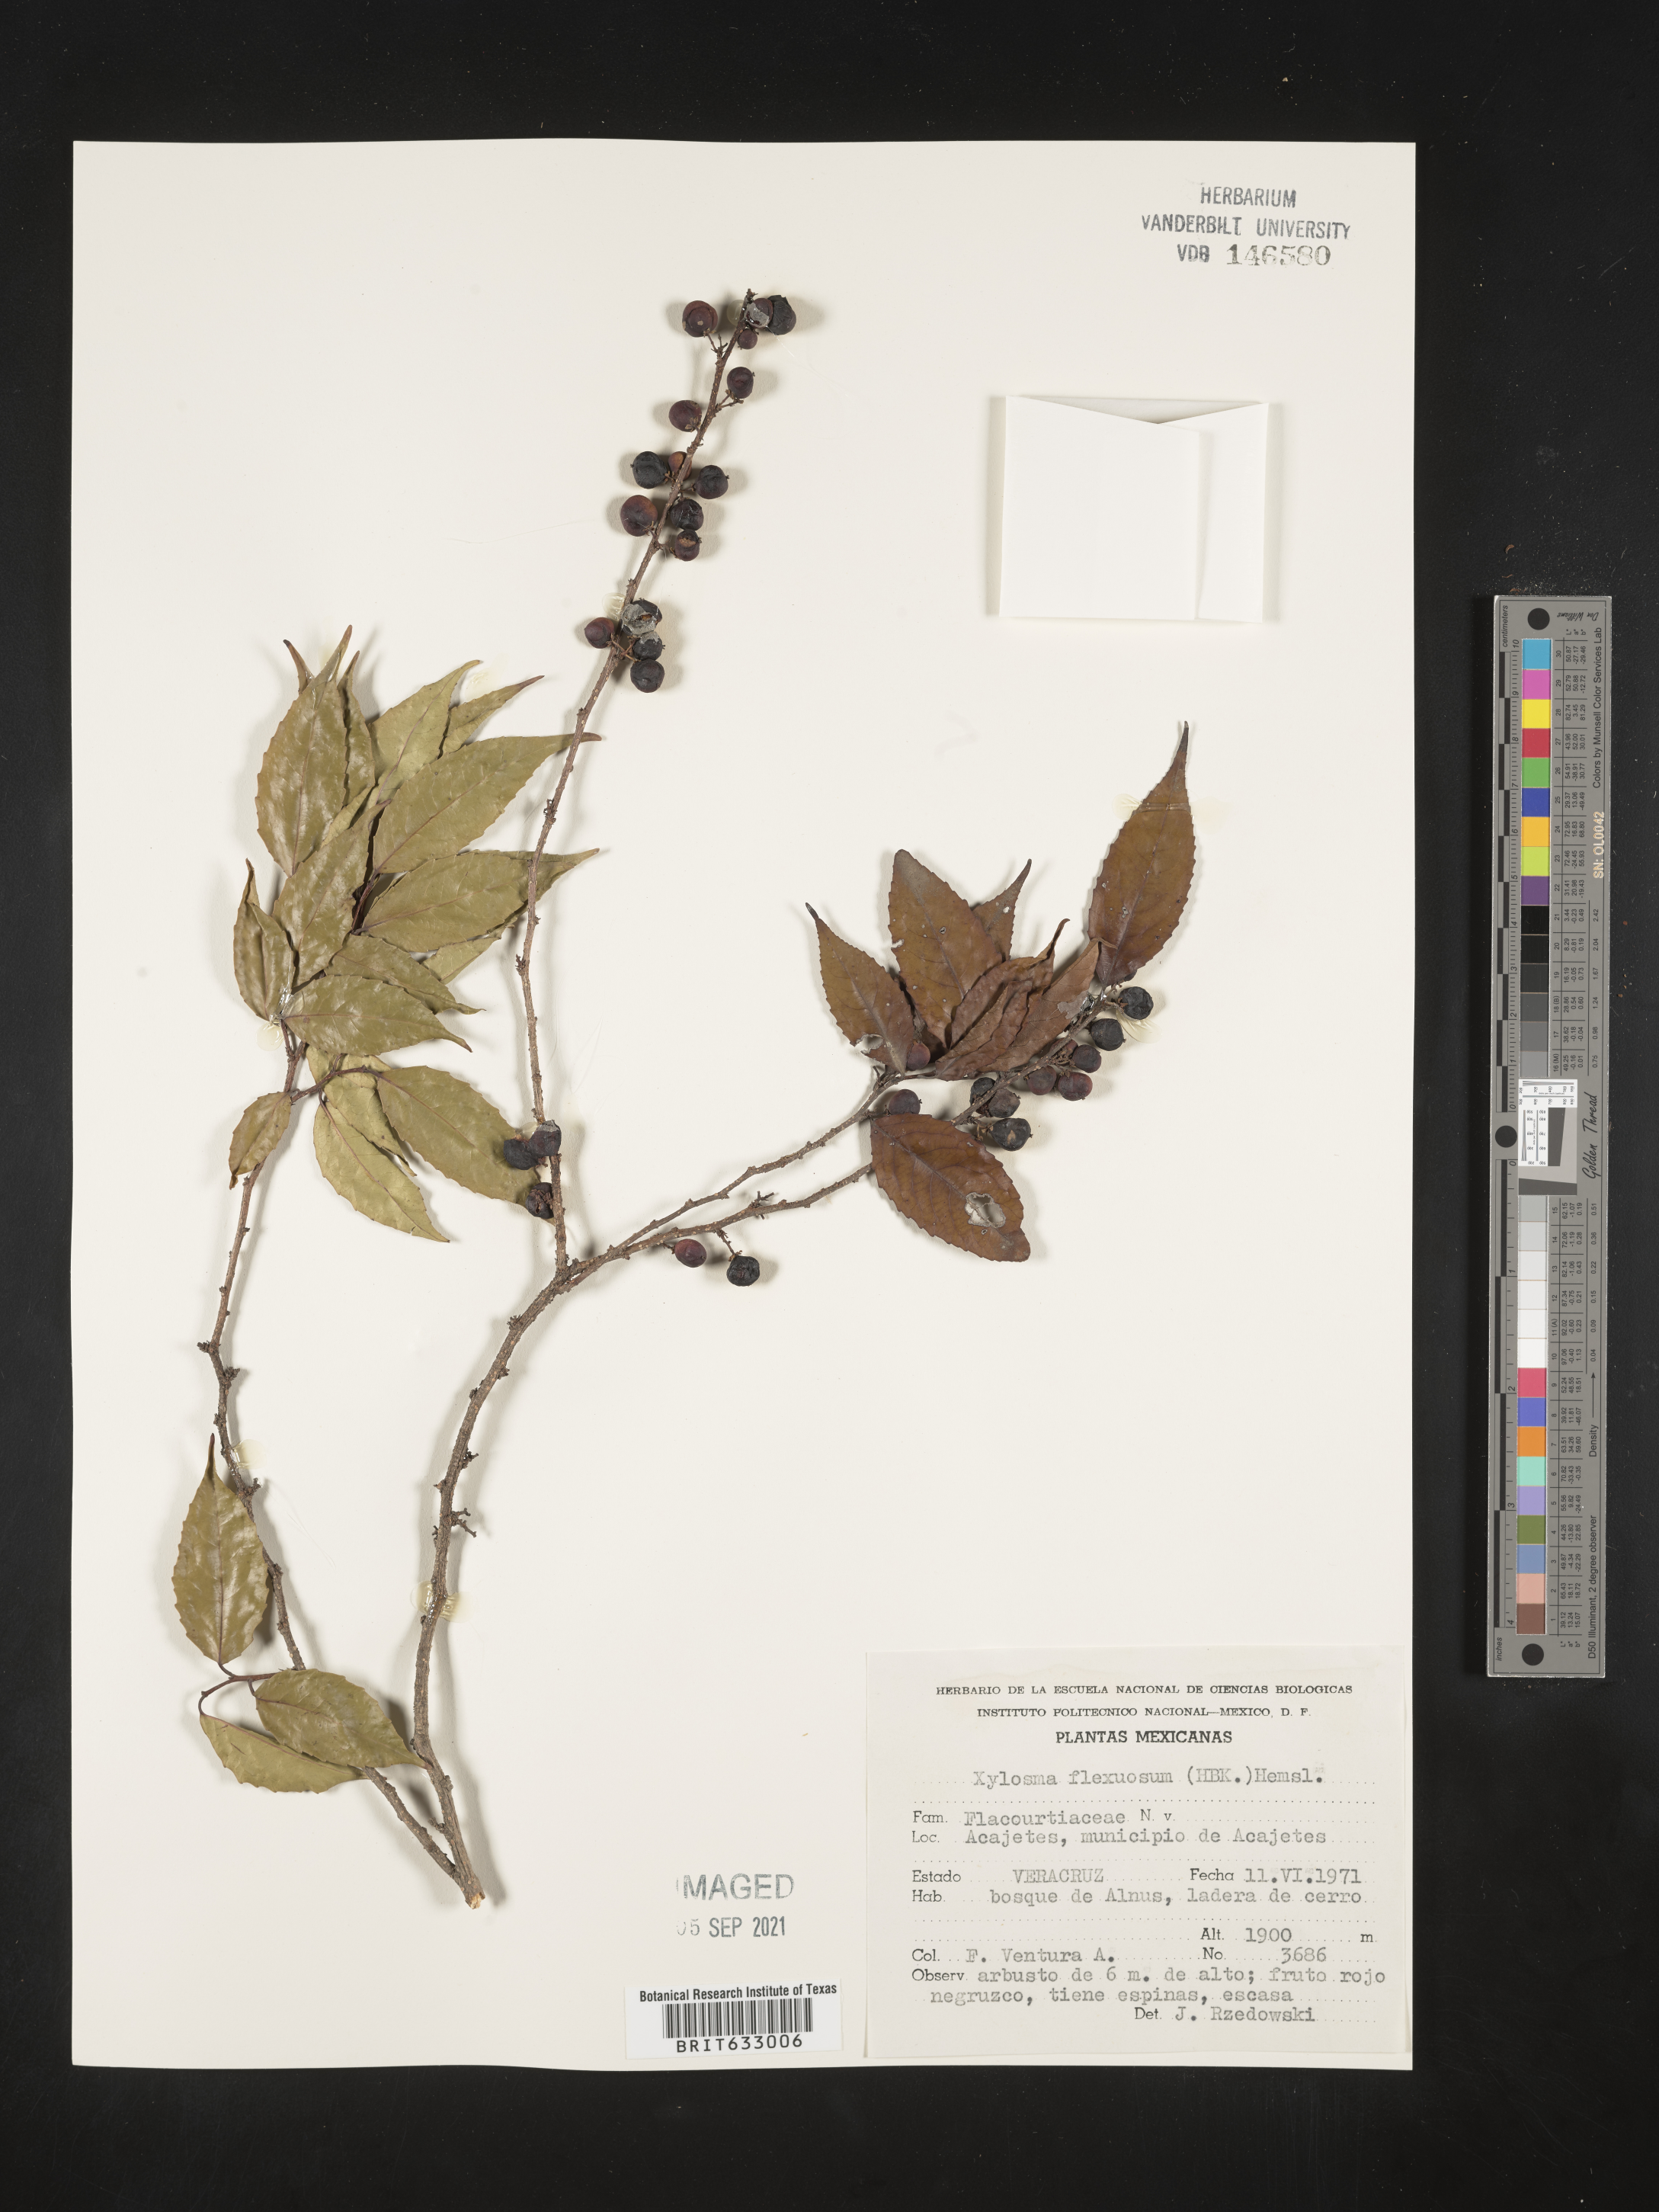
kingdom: Plantae
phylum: Tracheophyta
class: Magnoliopsida
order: Malpighiales
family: Salicaceae
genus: Xylosma
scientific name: Xylosma
